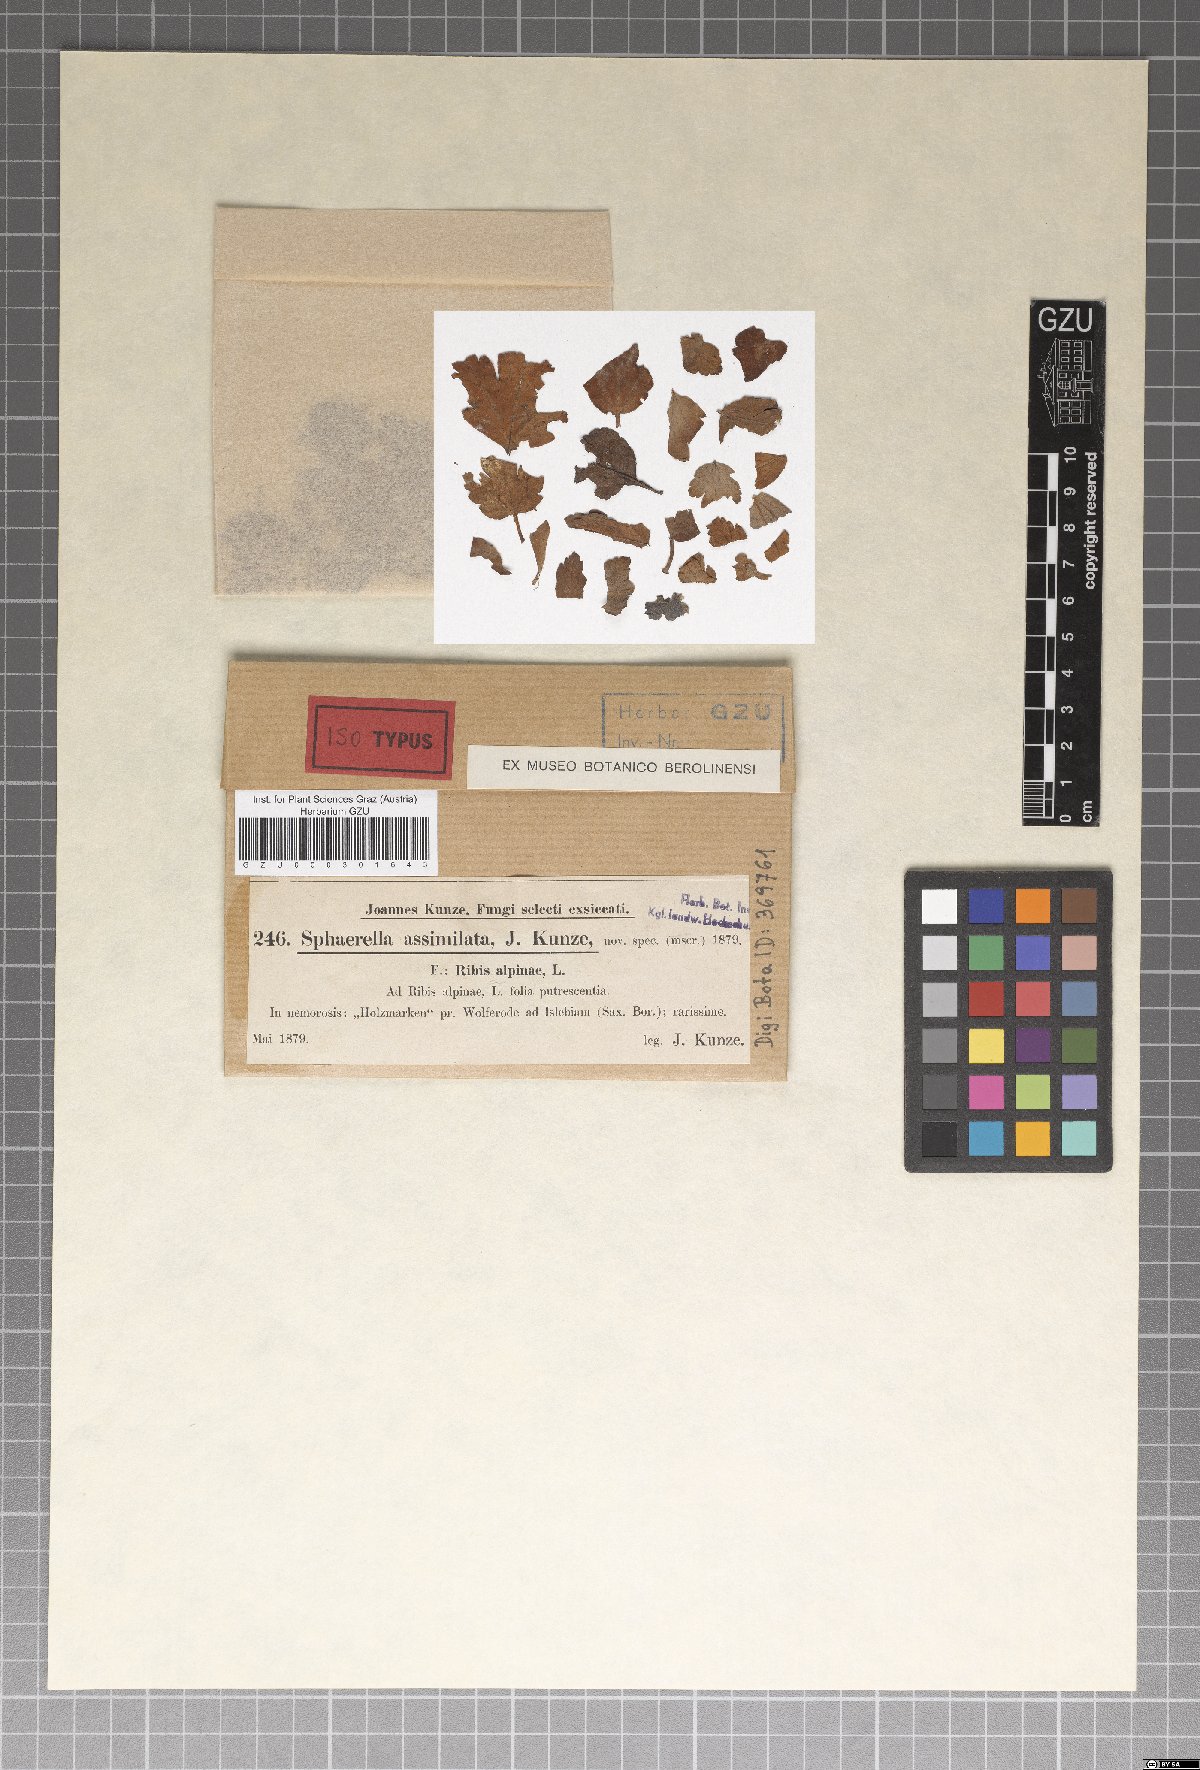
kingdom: Fungi
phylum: Ascomycota
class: Dothideomycetes
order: Mycosphaerellales
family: Mycosphaerellaceae
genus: Mycosphaerella
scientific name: Mycosphaerella assimilata
